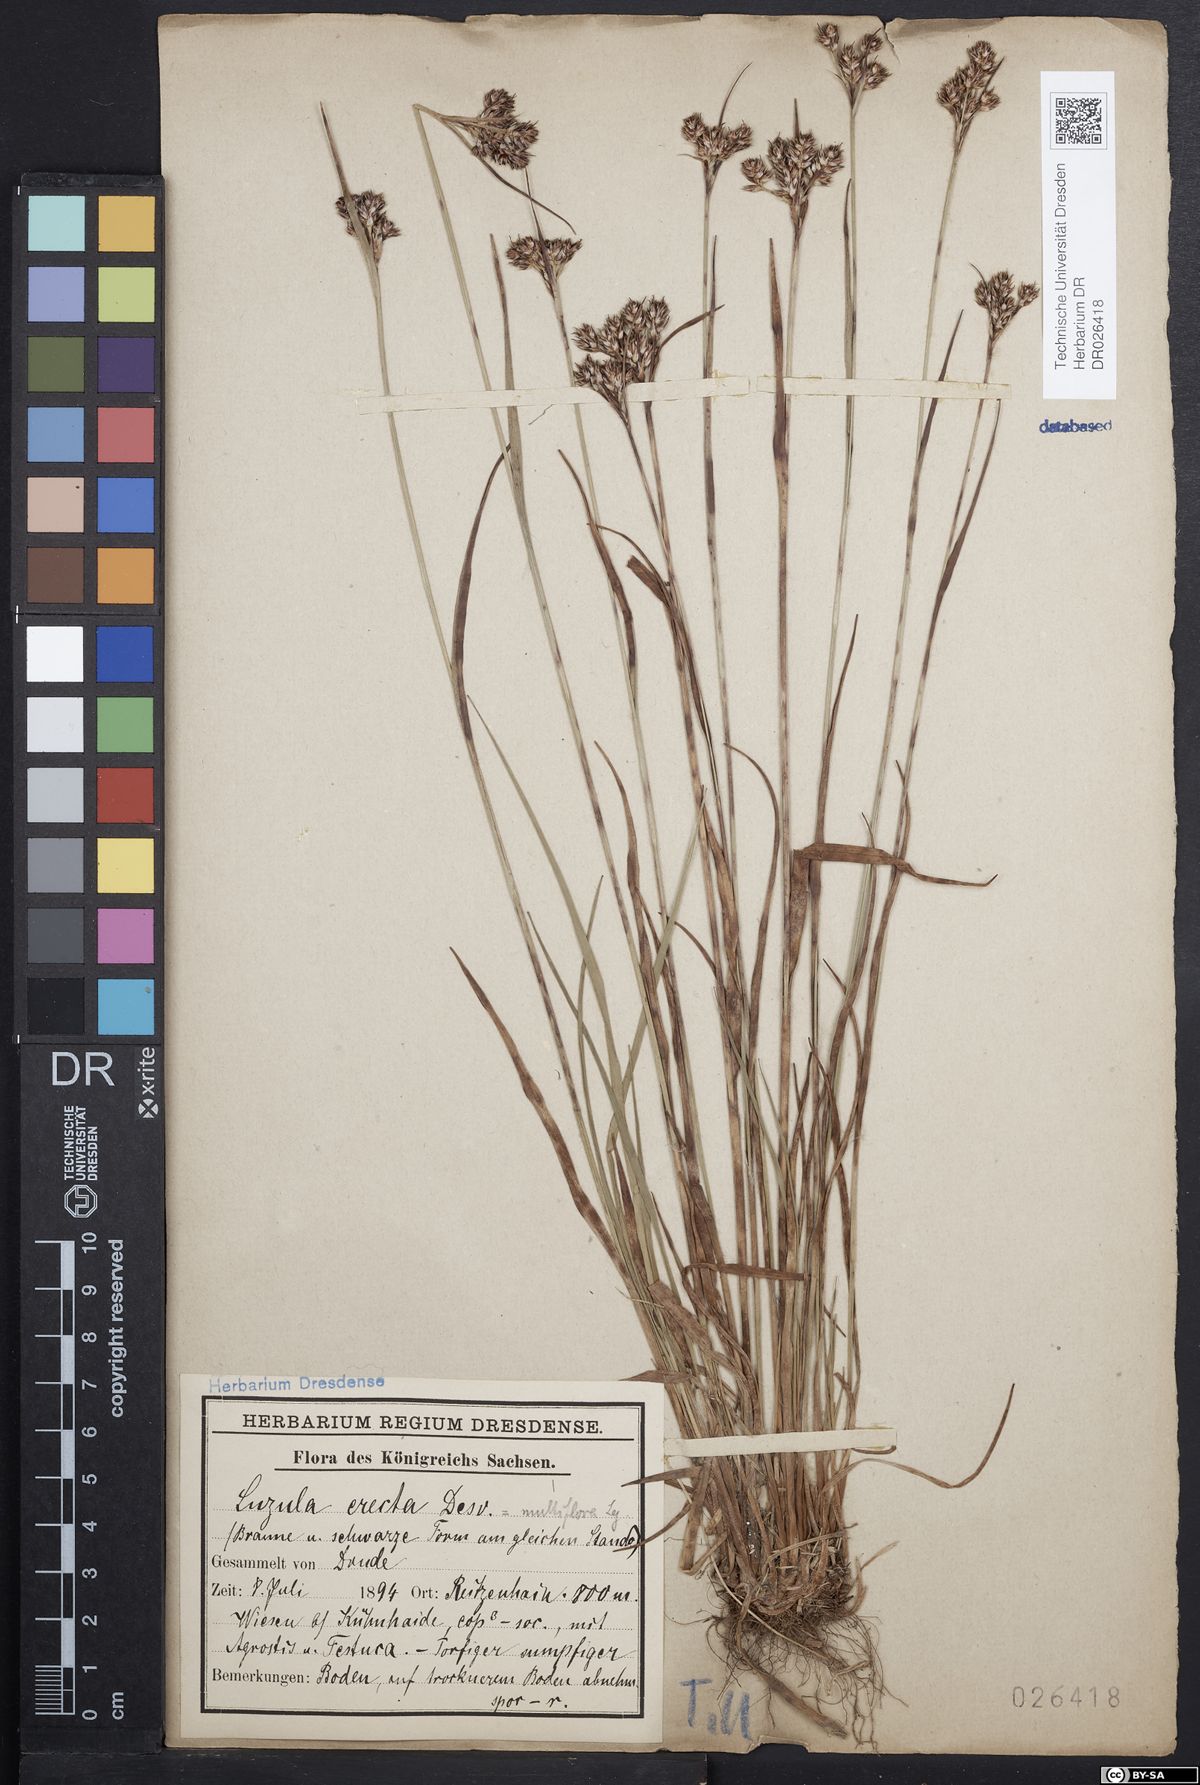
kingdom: Plantae
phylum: Tracheophyta
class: Liliopsida
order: Poales
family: Juncaceae
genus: Luzula
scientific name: Luzula multiflora
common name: Heath wood-rush
